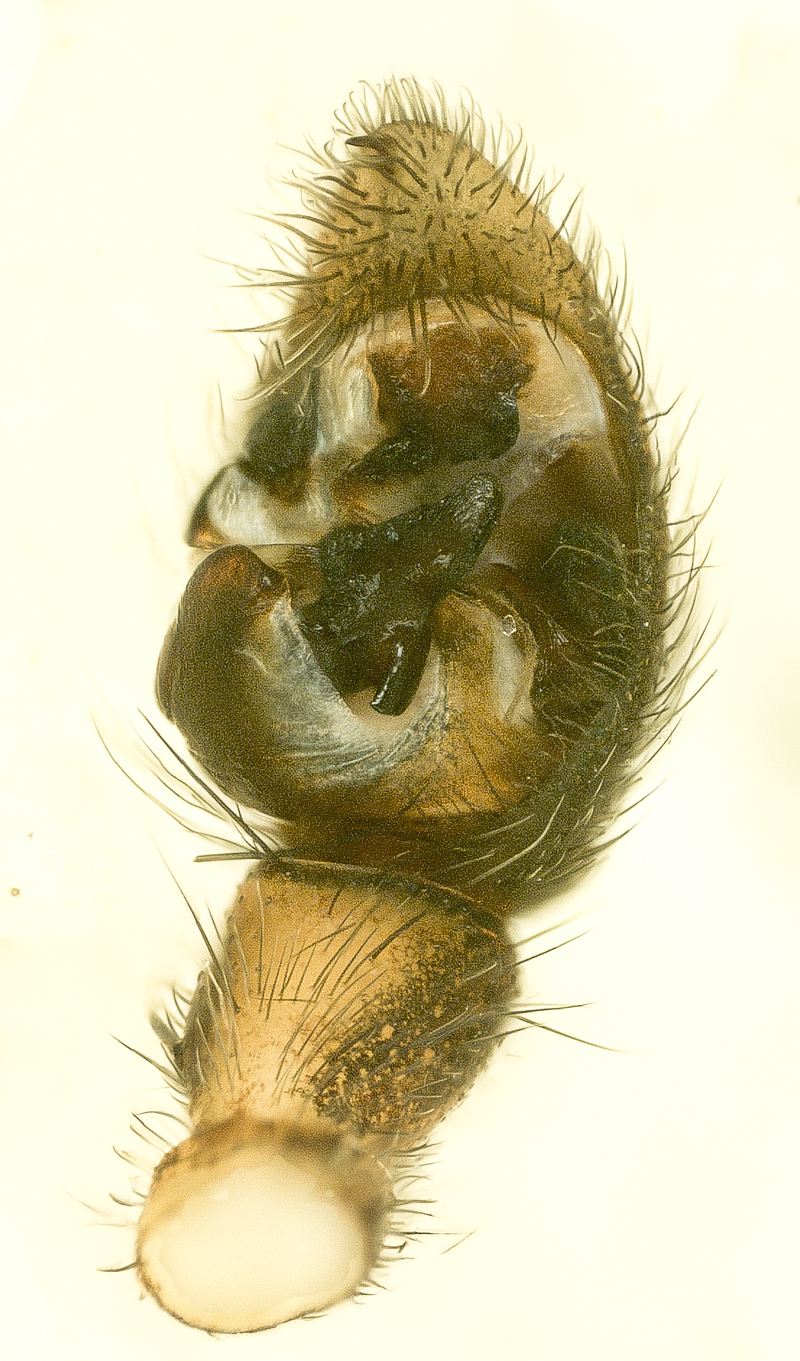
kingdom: Animalia
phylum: Arthropoda
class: Arachnida
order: Araneae
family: Lycosidae
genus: Pardosa
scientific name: Pardosa palustris
